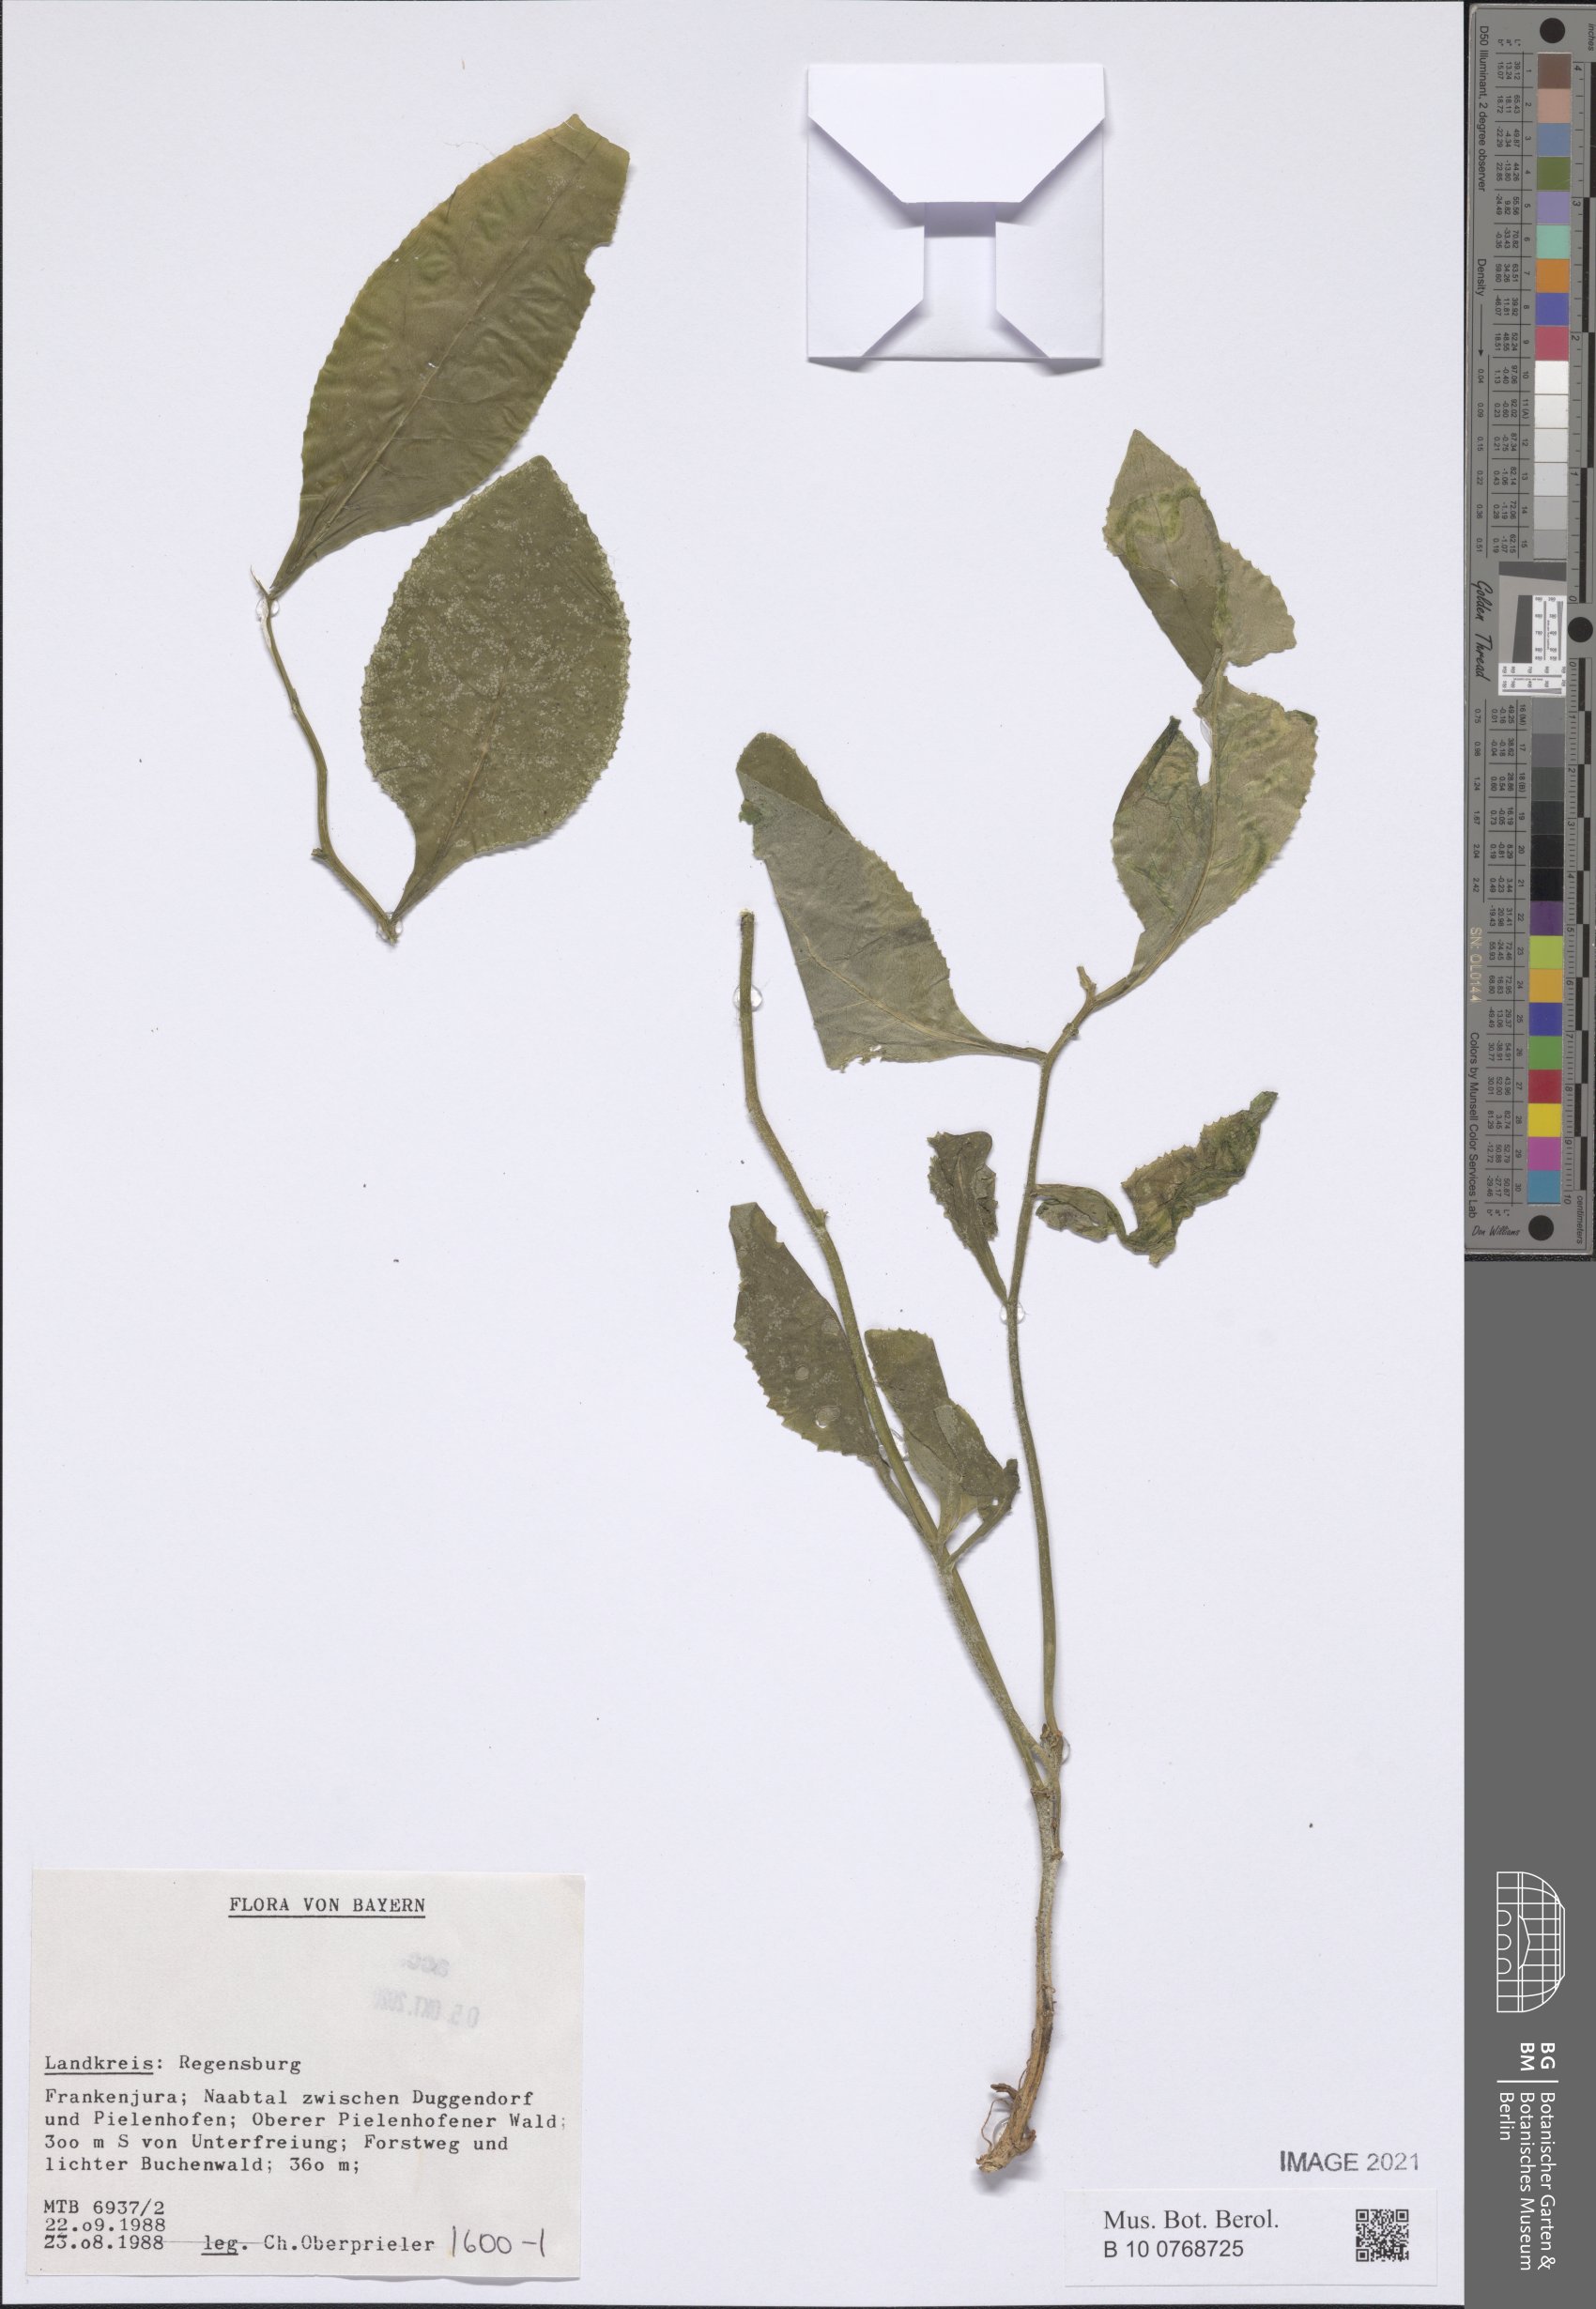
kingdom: Plantae
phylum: Tracheophyta
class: Magnoliopsida
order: Asterales
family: Asteraceae
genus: Senecio
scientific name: Senecio
